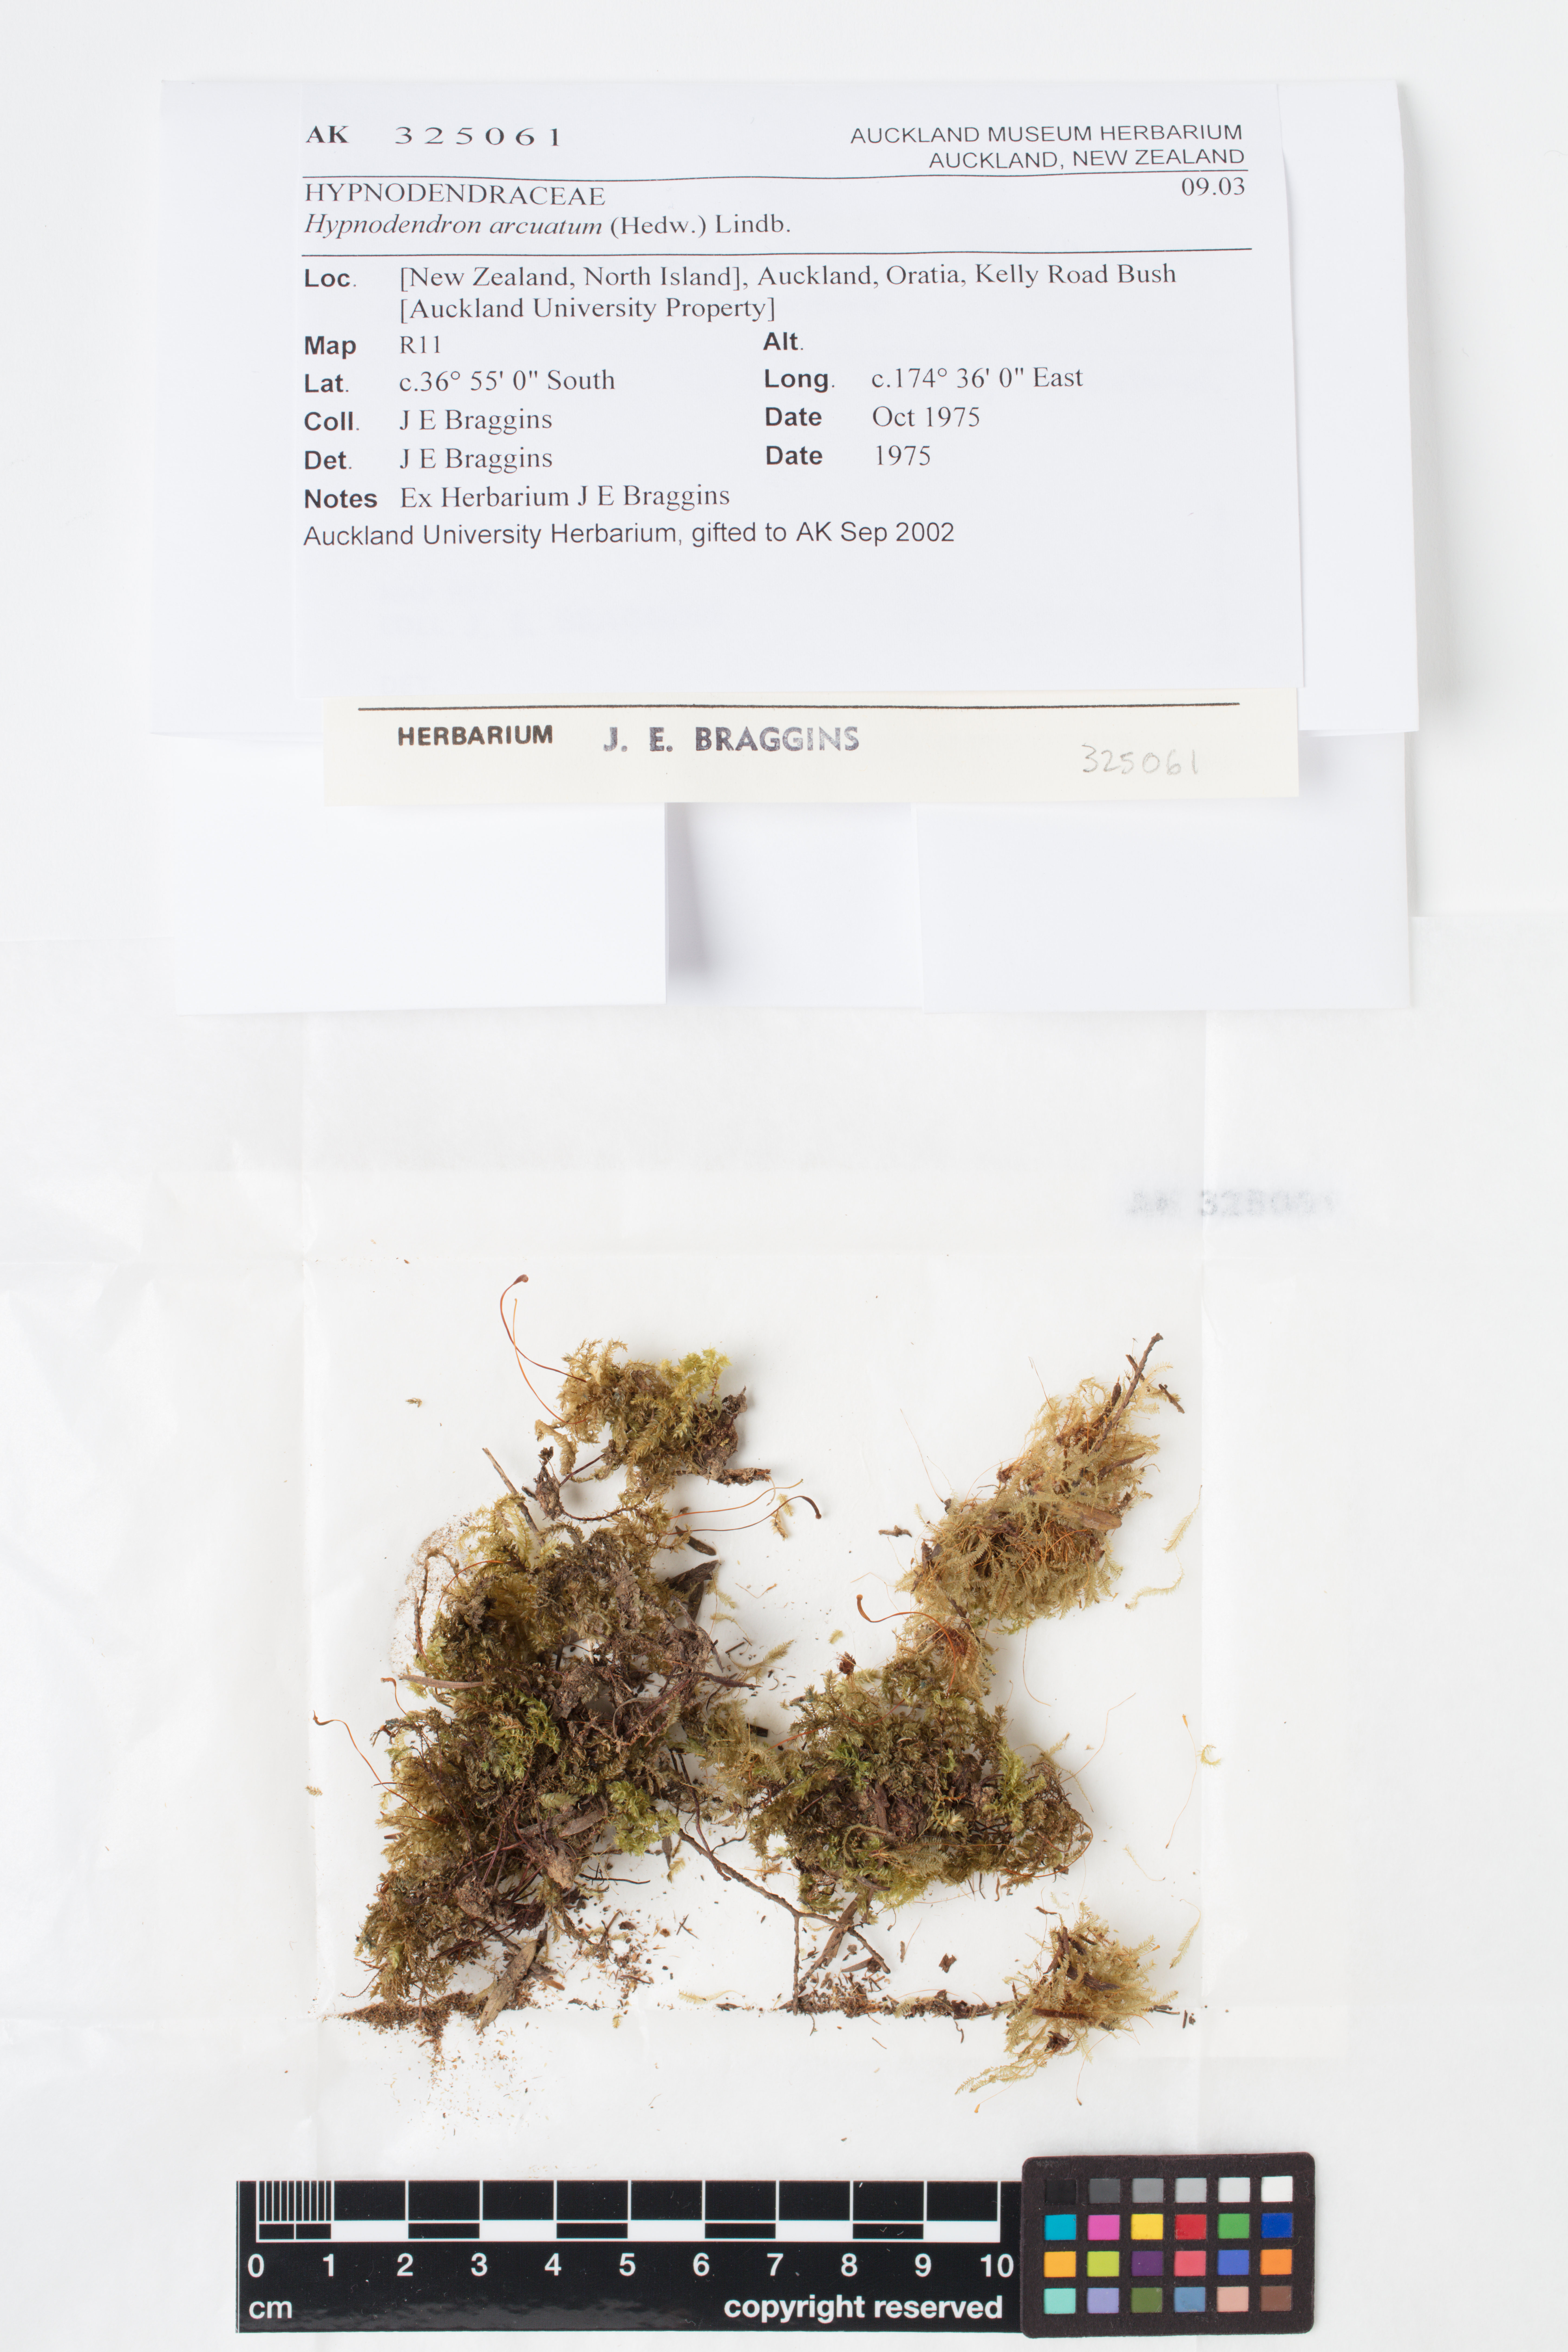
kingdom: Plantae
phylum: Bryophyta
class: Bryopsida
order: Hypnodendrales
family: Spiridentaceae
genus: Hypnodendron
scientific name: Hypnodendron arcuatum
